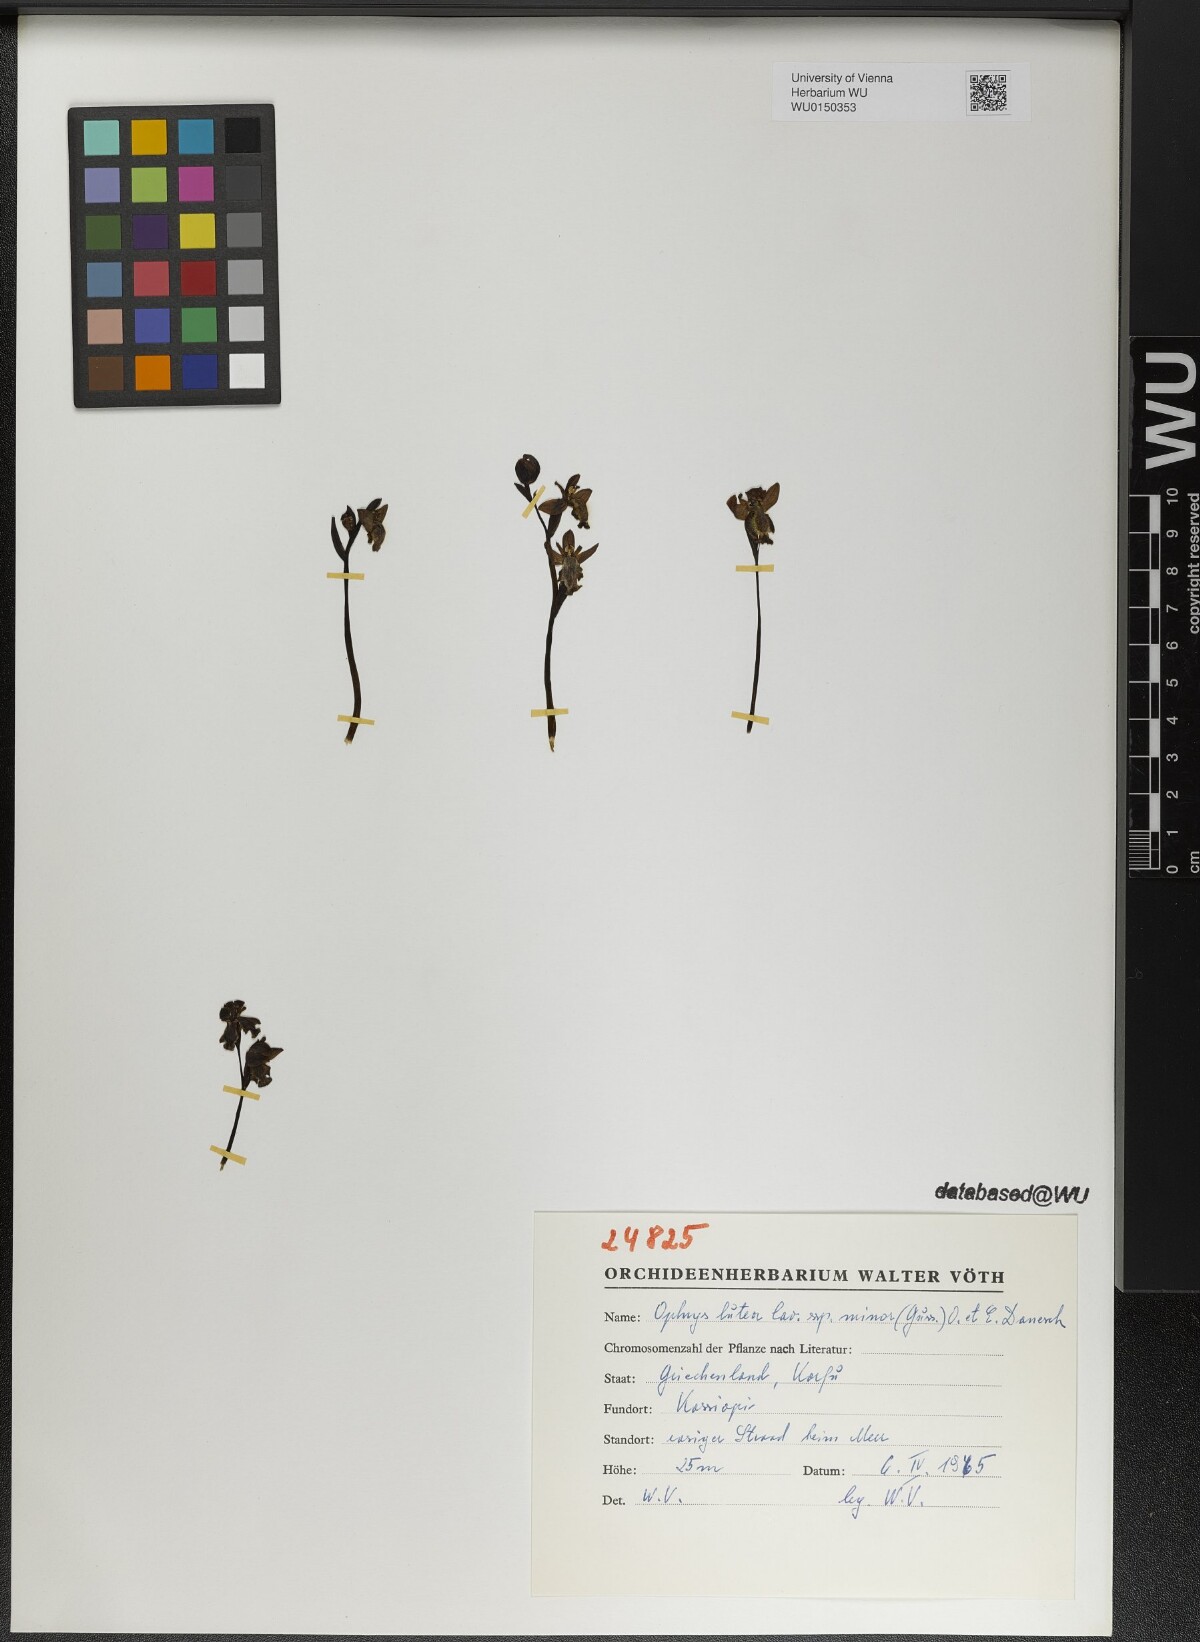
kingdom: Plantae
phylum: Tracheophyta
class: Liliopsida
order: Asparagales
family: Orchidaceae
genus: Ophrys
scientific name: Ophrys lutea
